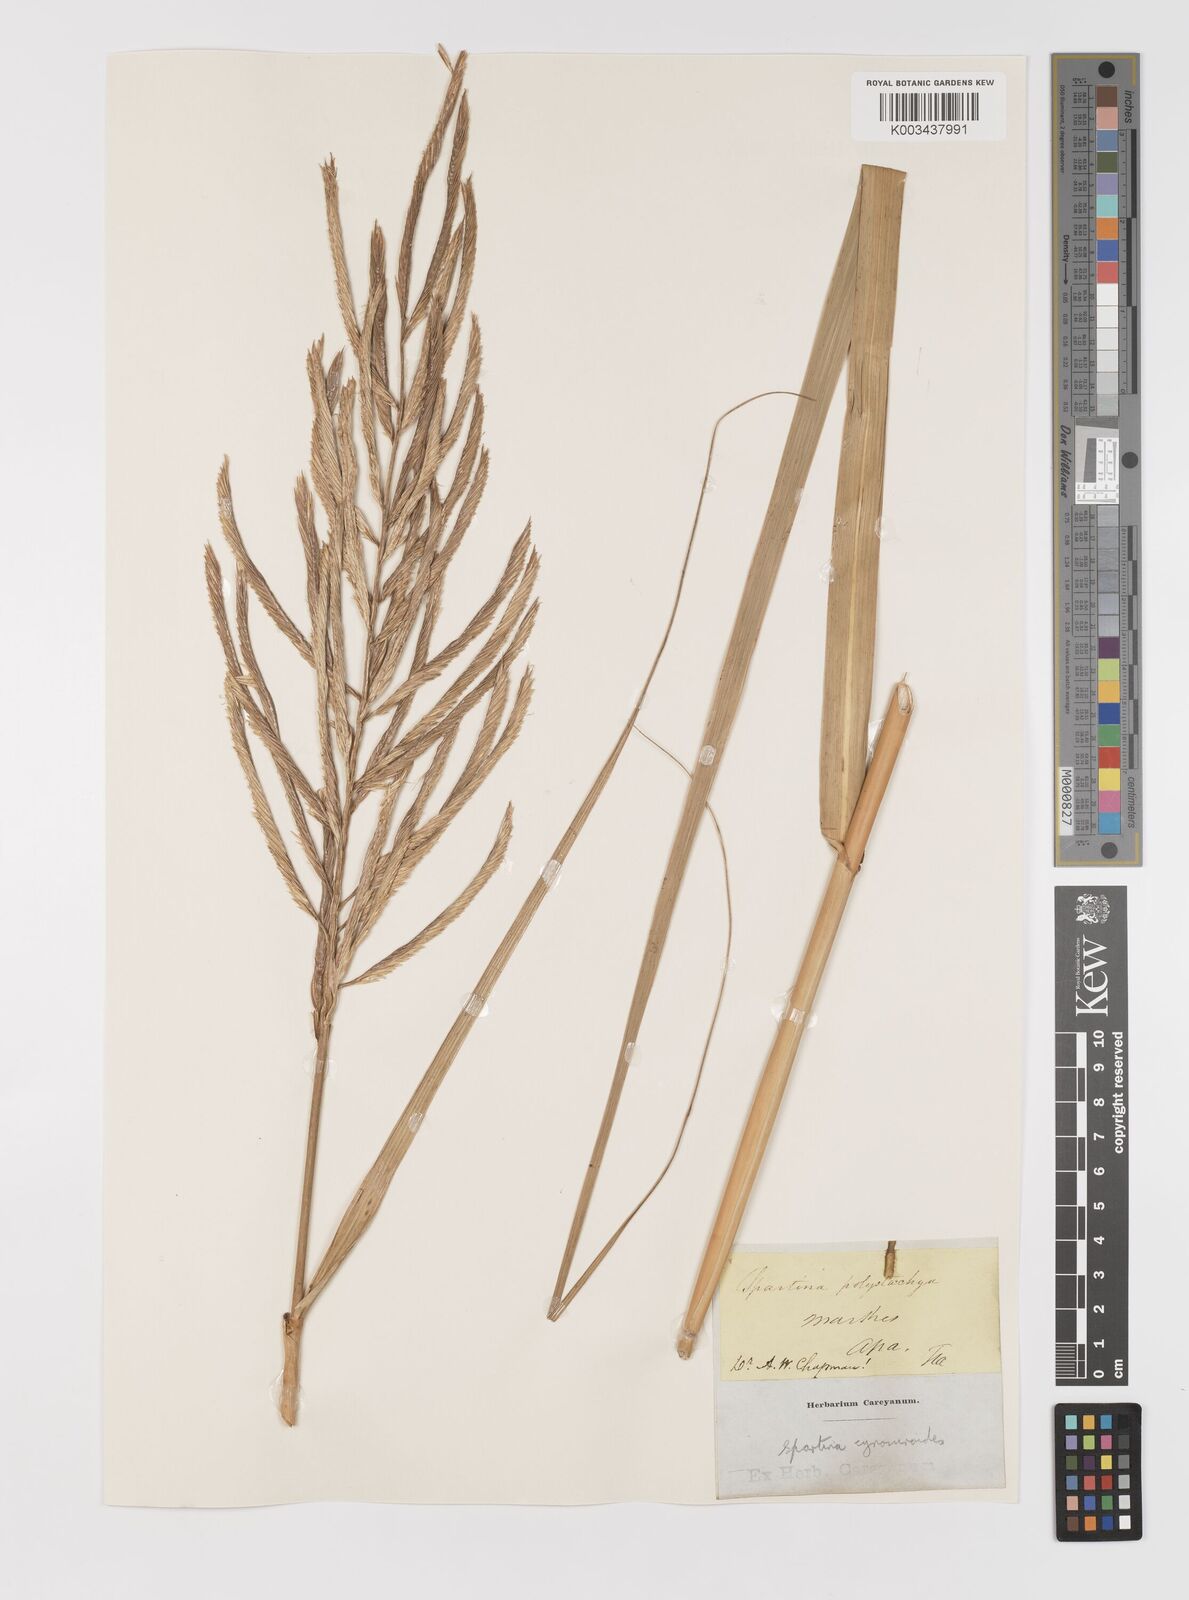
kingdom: Plantae
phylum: Tracheophyta
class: Liliopsida
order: Poales
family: Poaceae
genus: Sporobolus
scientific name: Sporobolus cynosuroides
